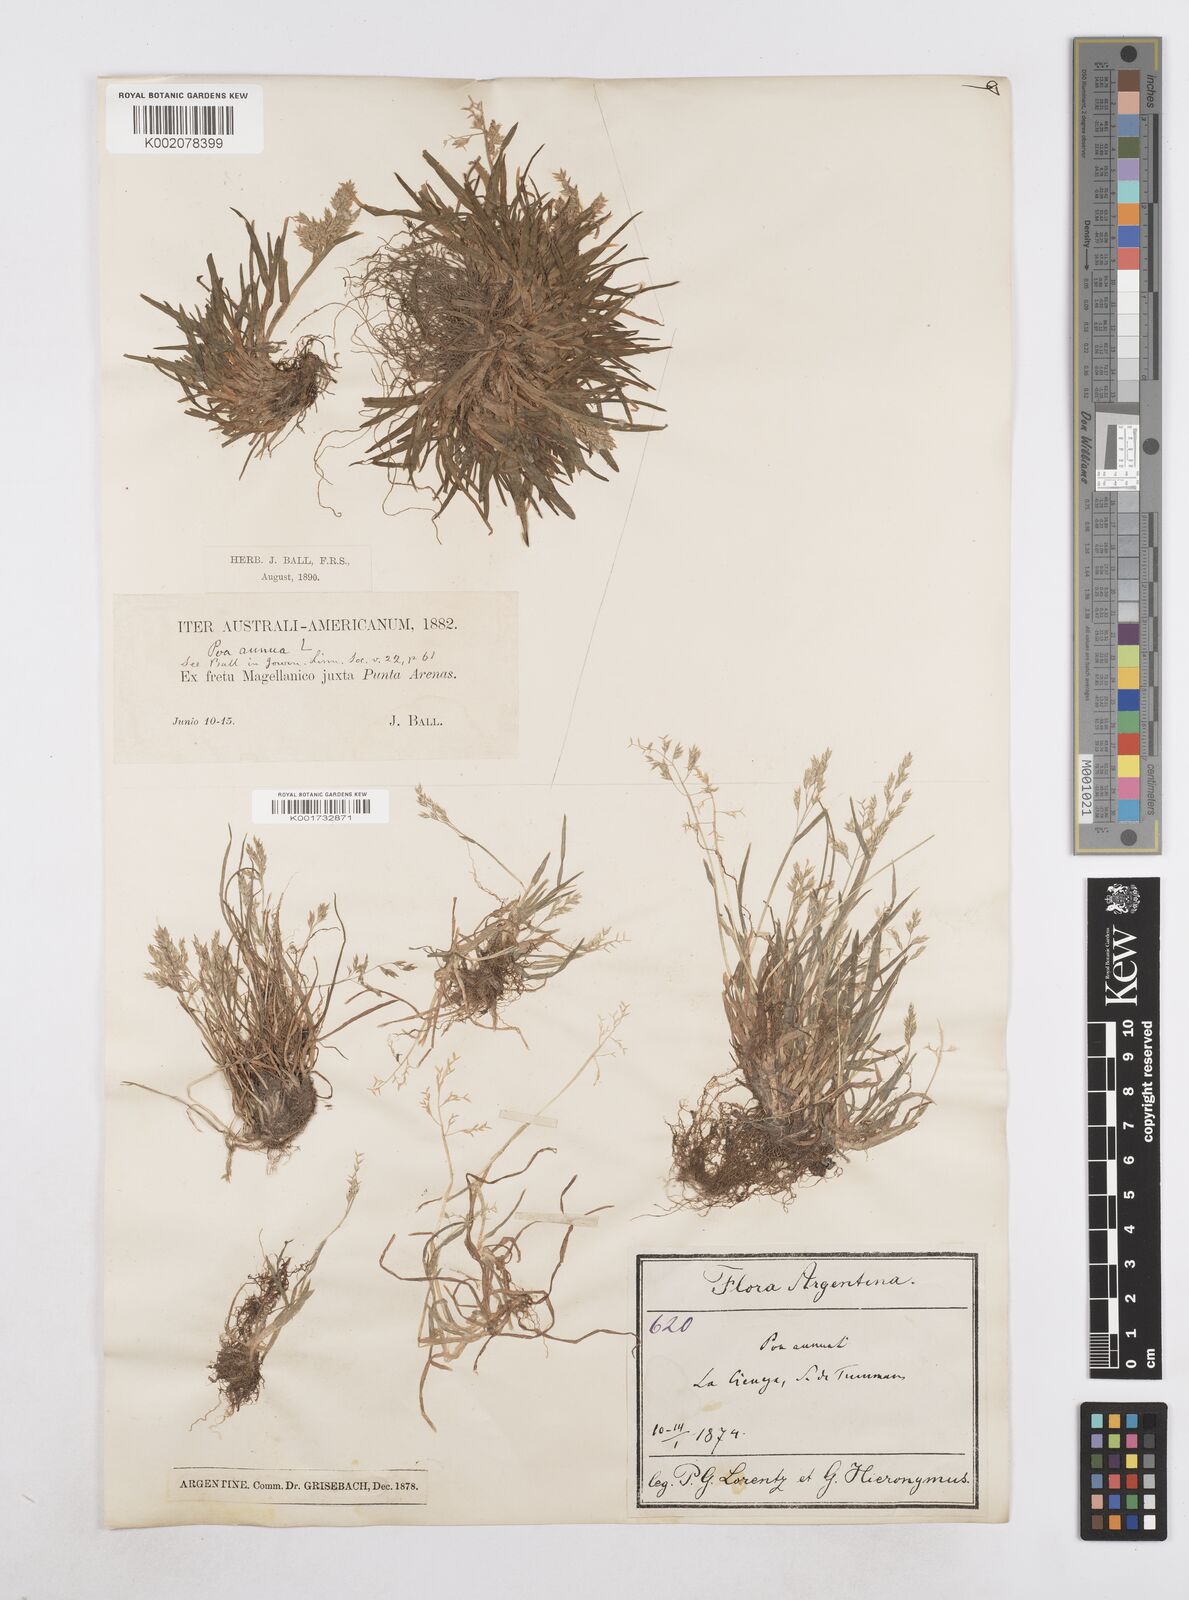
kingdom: Plantae
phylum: Tracheophyta
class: Liliopsida
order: Poales
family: Poaceae
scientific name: Poaceae
